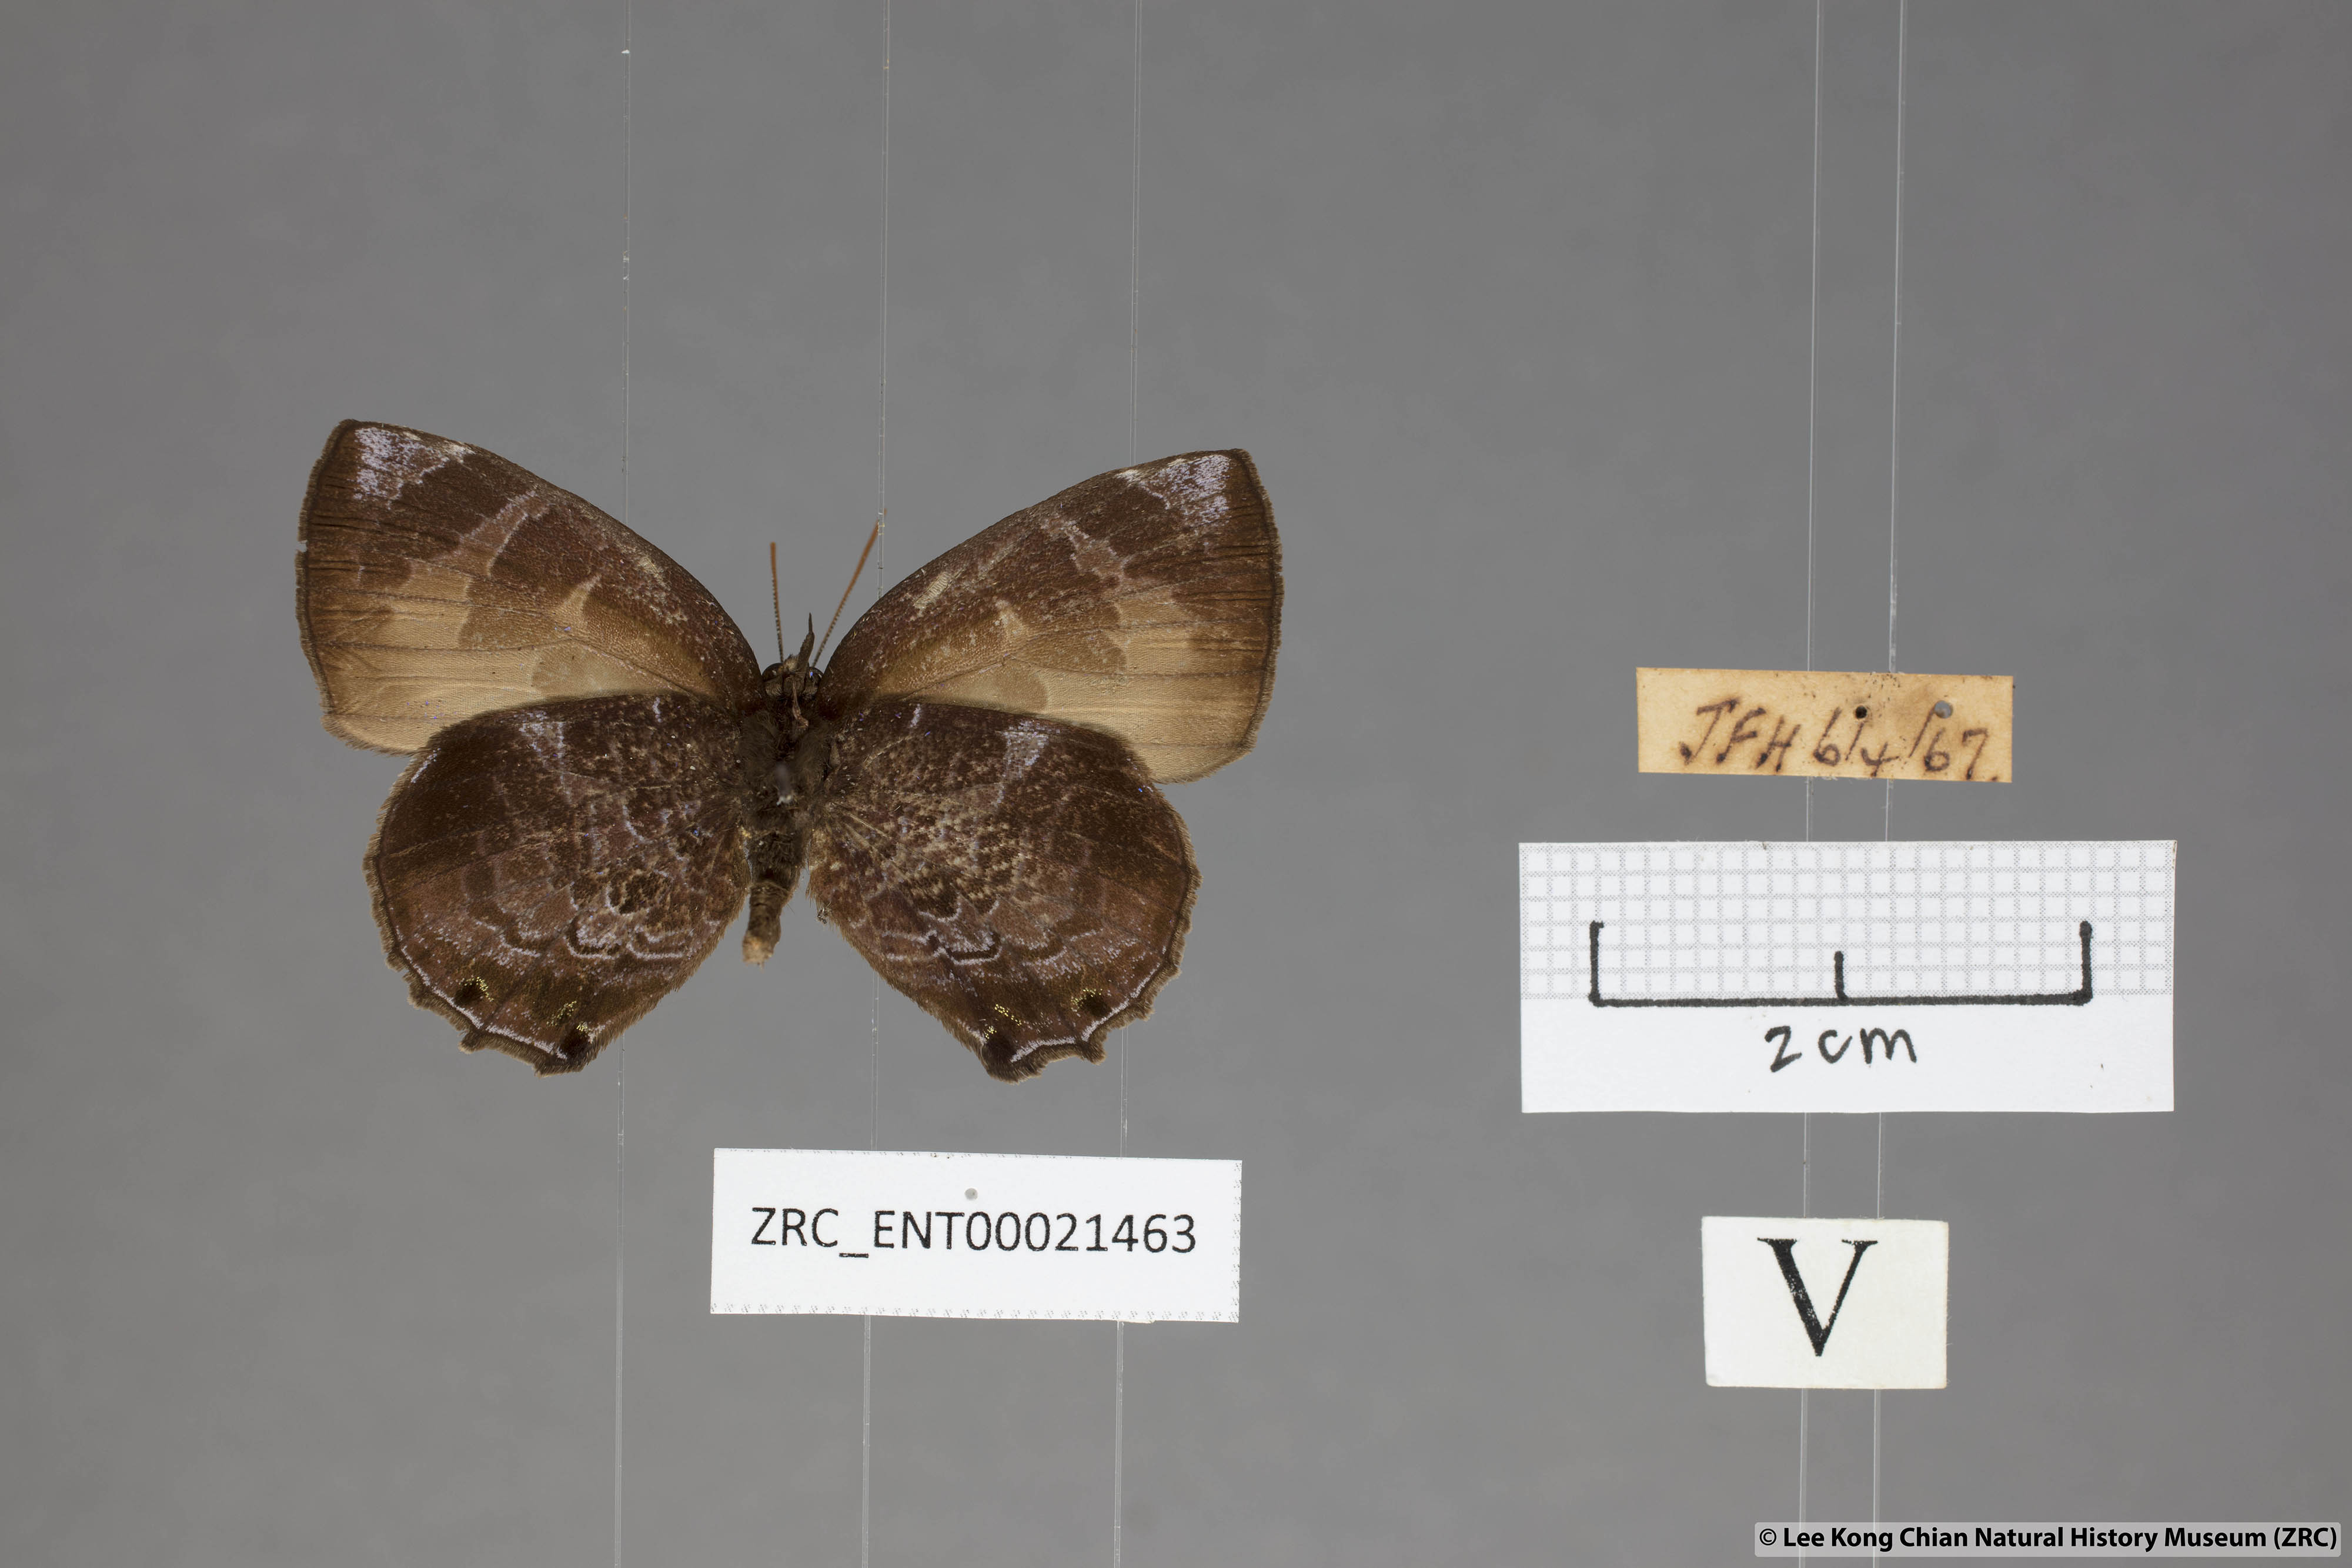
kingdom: Animalia
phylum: Arthropoda
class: Insecta
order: Lepidoptera
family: Lycaenidae
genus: Flos
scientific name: Flos
